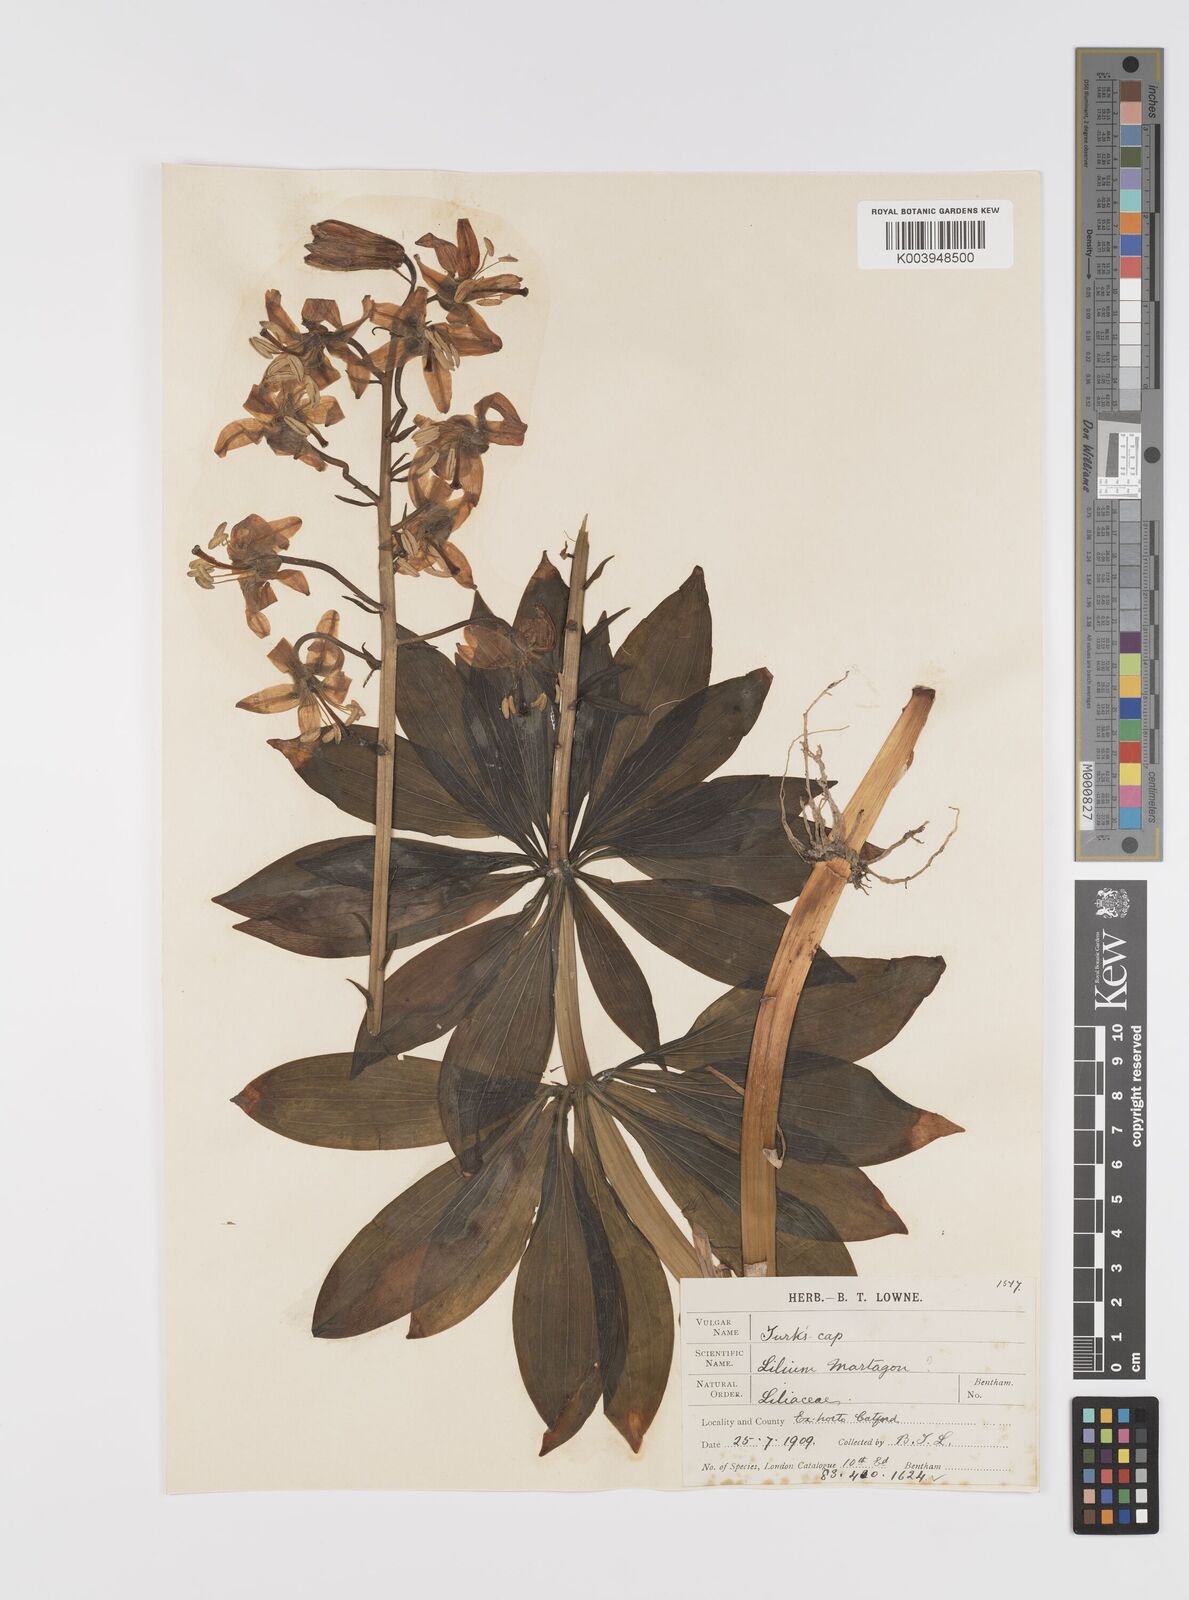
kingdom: Plantae
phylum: Tracheophyta
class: Liliopsida
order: Liliales
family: Liliaceae
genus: Lilium
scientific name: Lilium martagon
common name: Martagon lily
